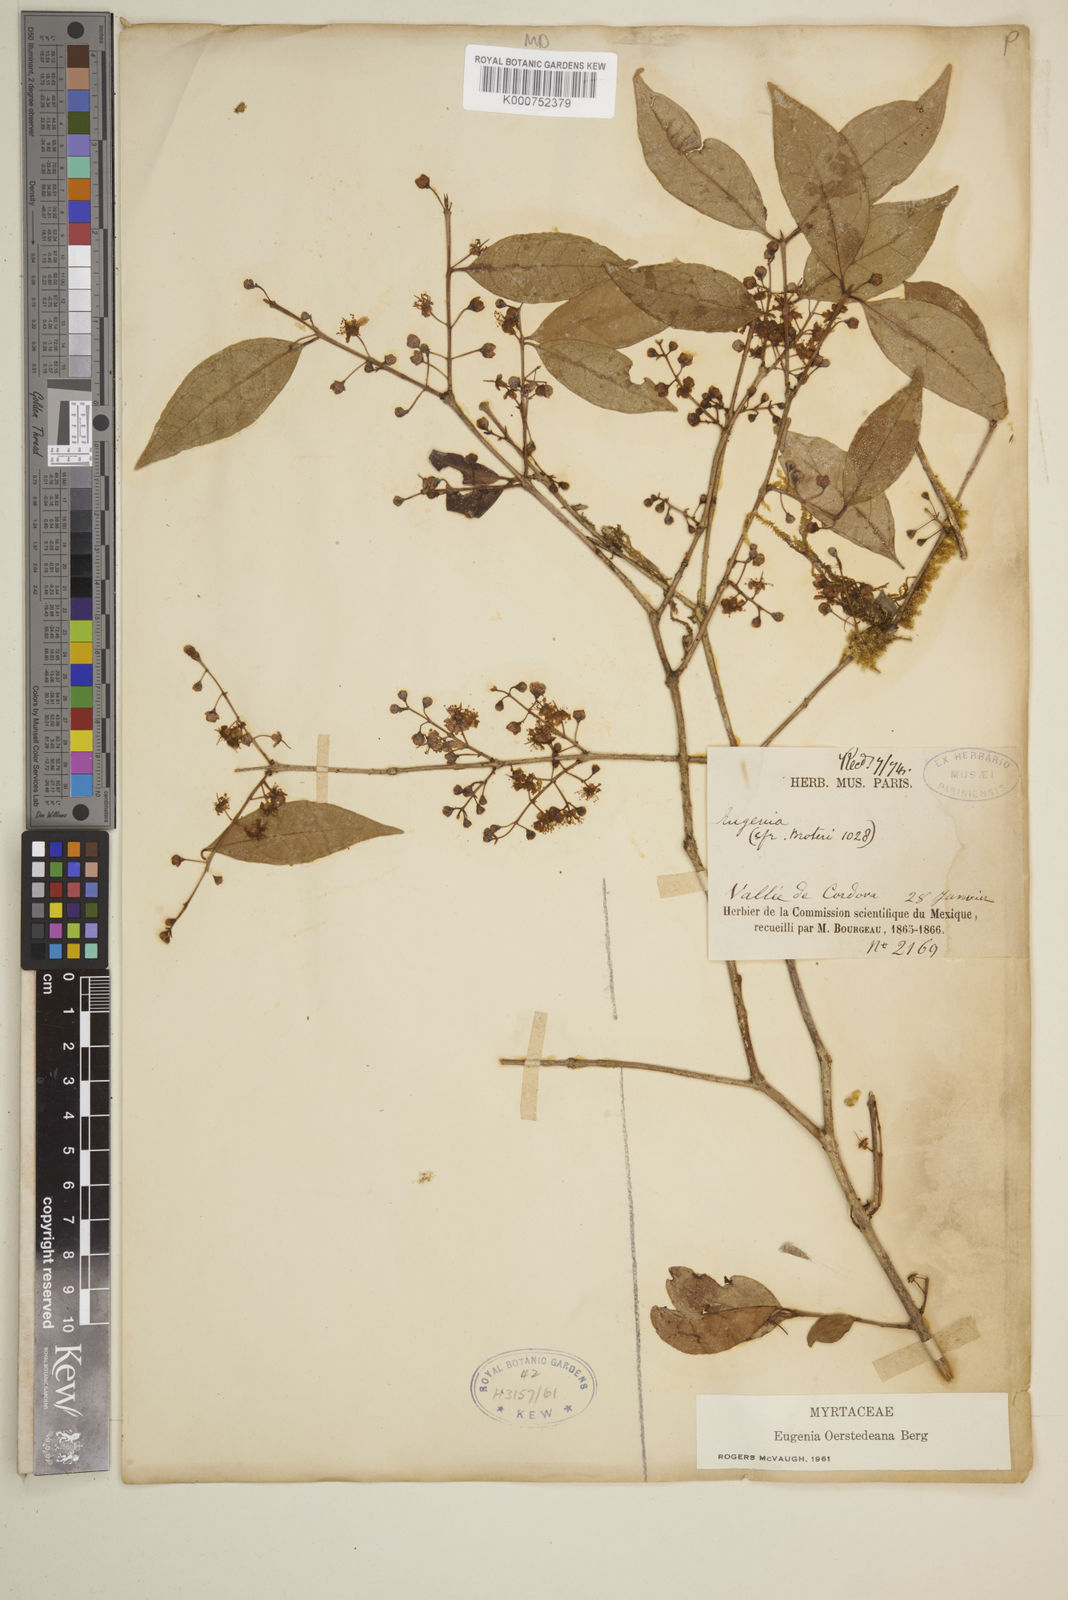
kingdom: Plantae
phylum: Tracheophyta
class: Magnoliopsida
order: Myrtales
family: Myrtaceae
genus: Eugenia
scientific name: Eugenia oerstediana
